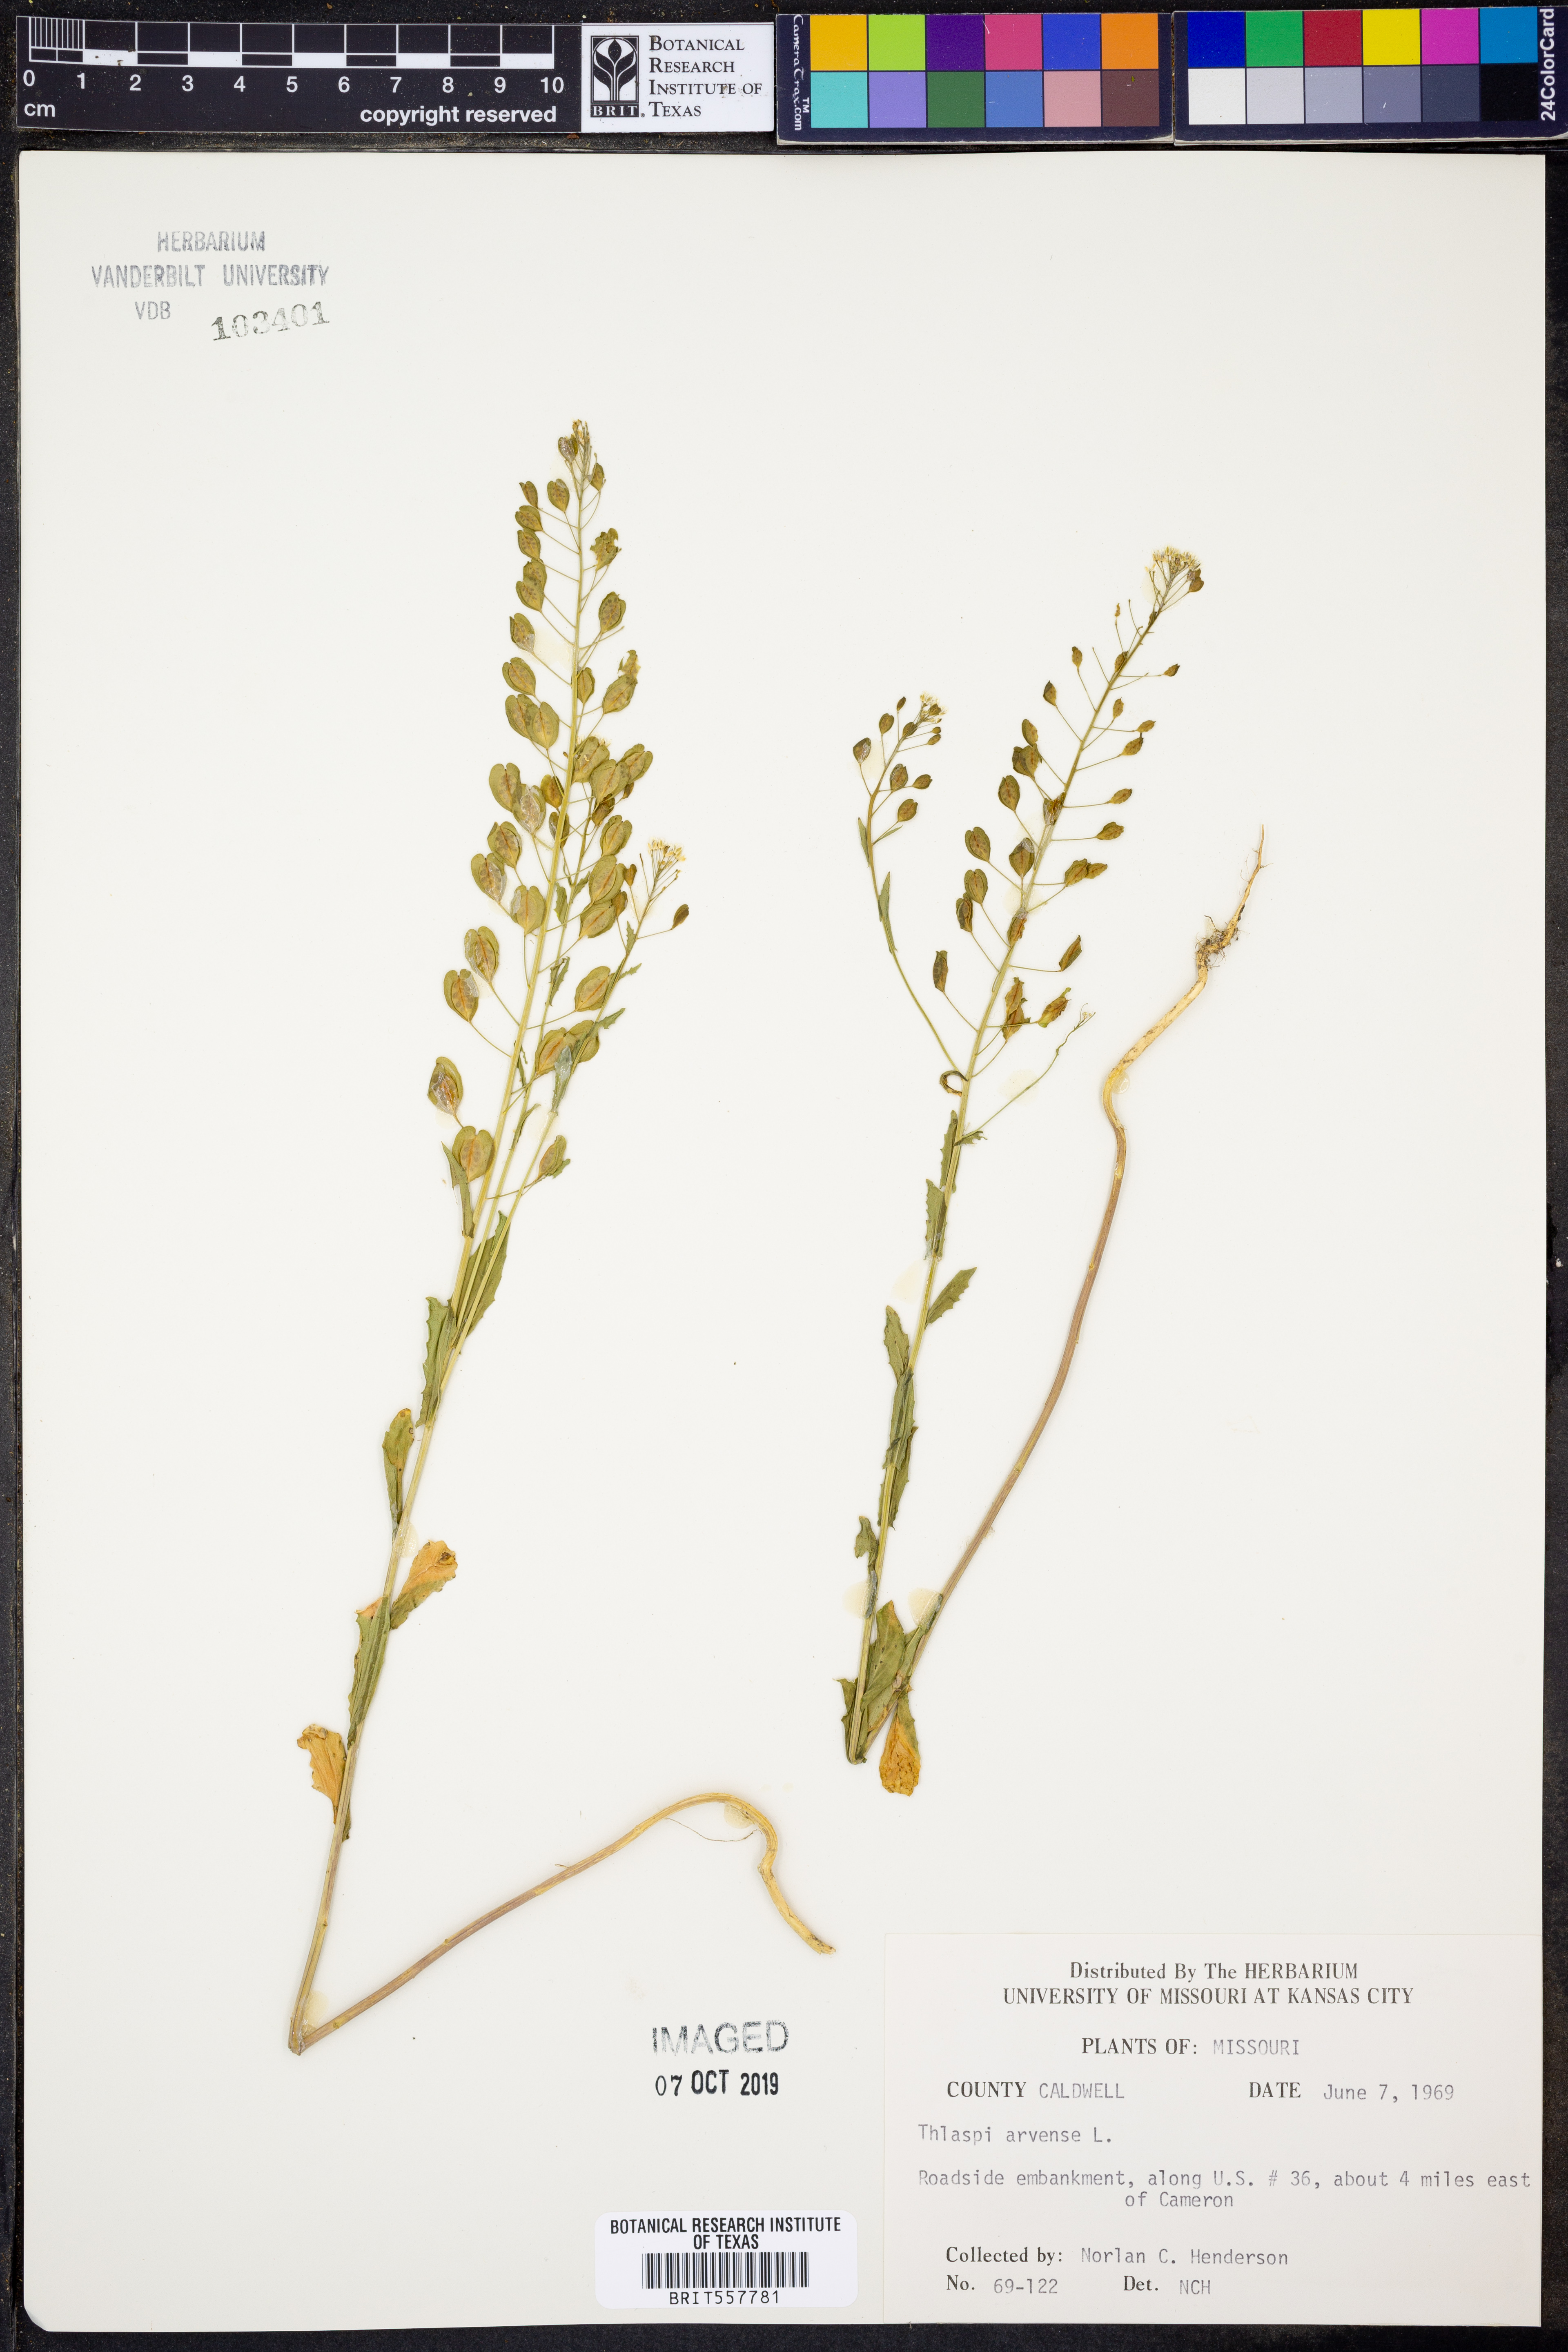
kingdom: Plantae
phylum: Tracheophyta
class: Magnoliopsida
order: Brassicales
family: Brassicaceae
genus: Thlaspi
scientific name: Thlaspi arvense
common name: Field pennycress
